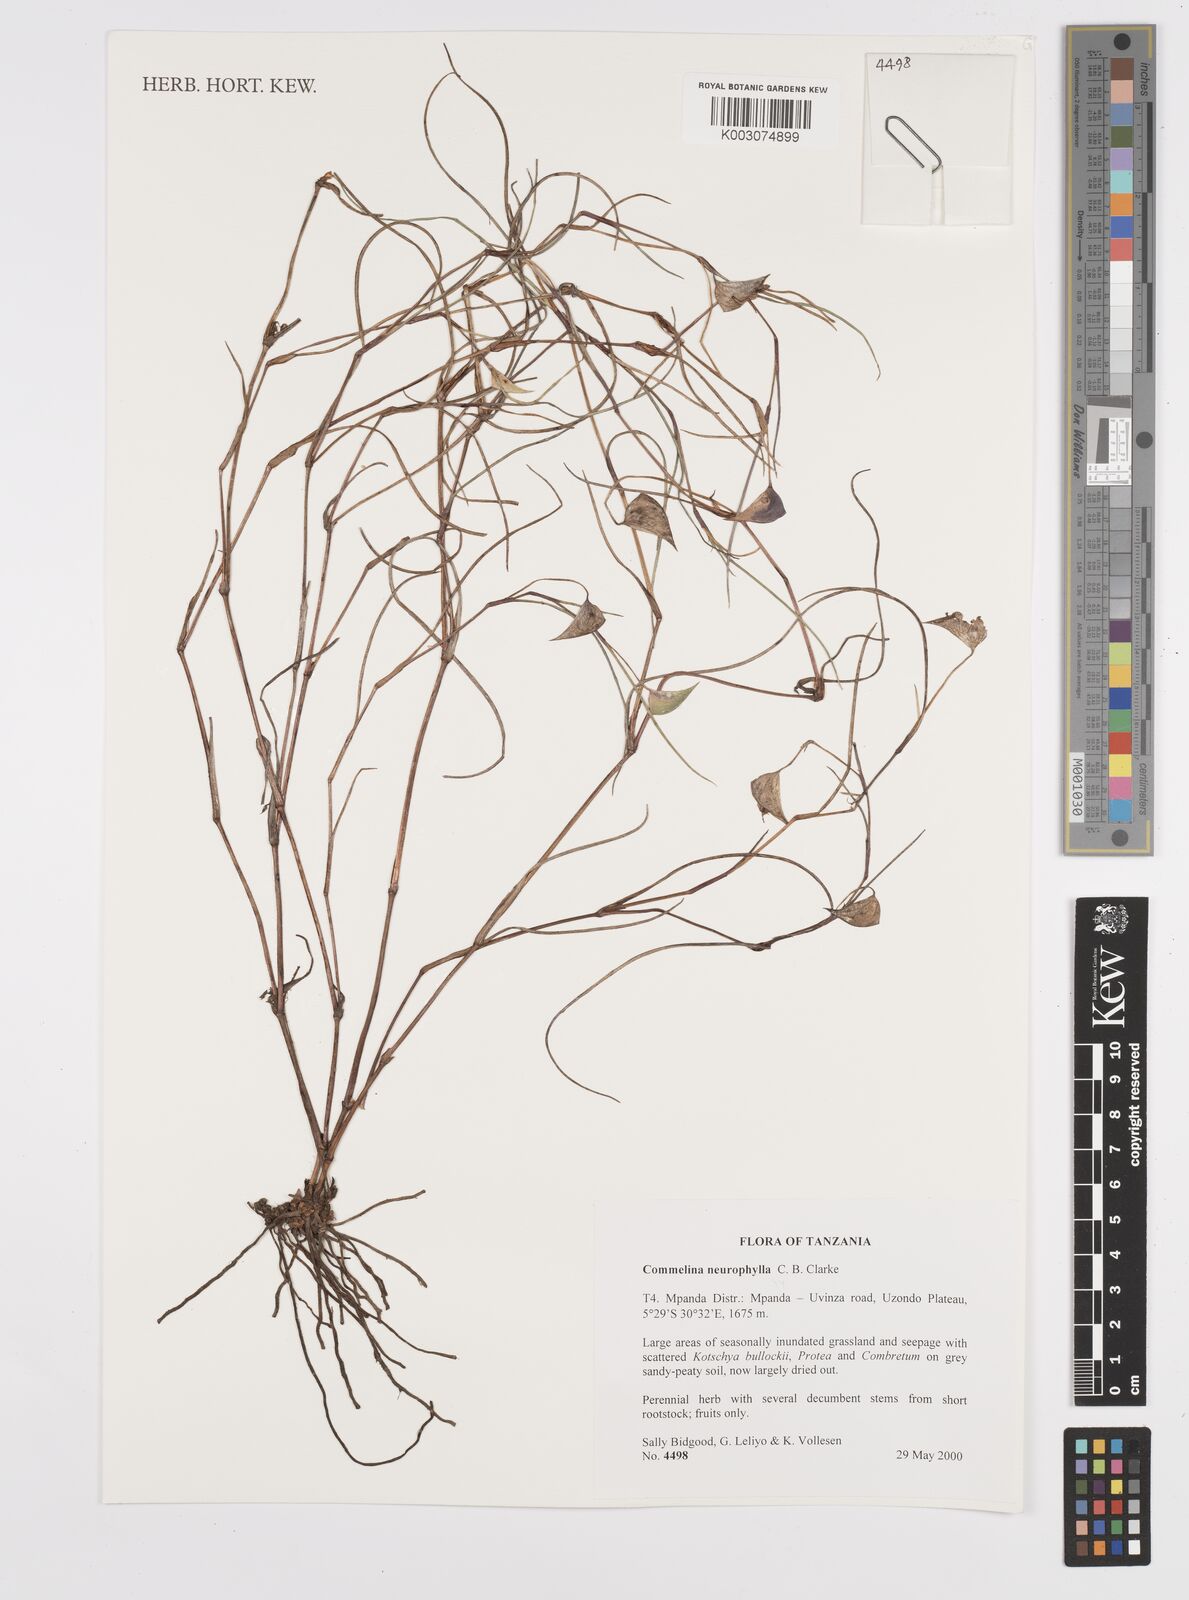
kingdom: Plantae
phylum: Tracheophyta
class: Liliopsida
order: Commelinales
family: Commelinaceae
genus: Commelina
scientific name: Commelina neurophylla
